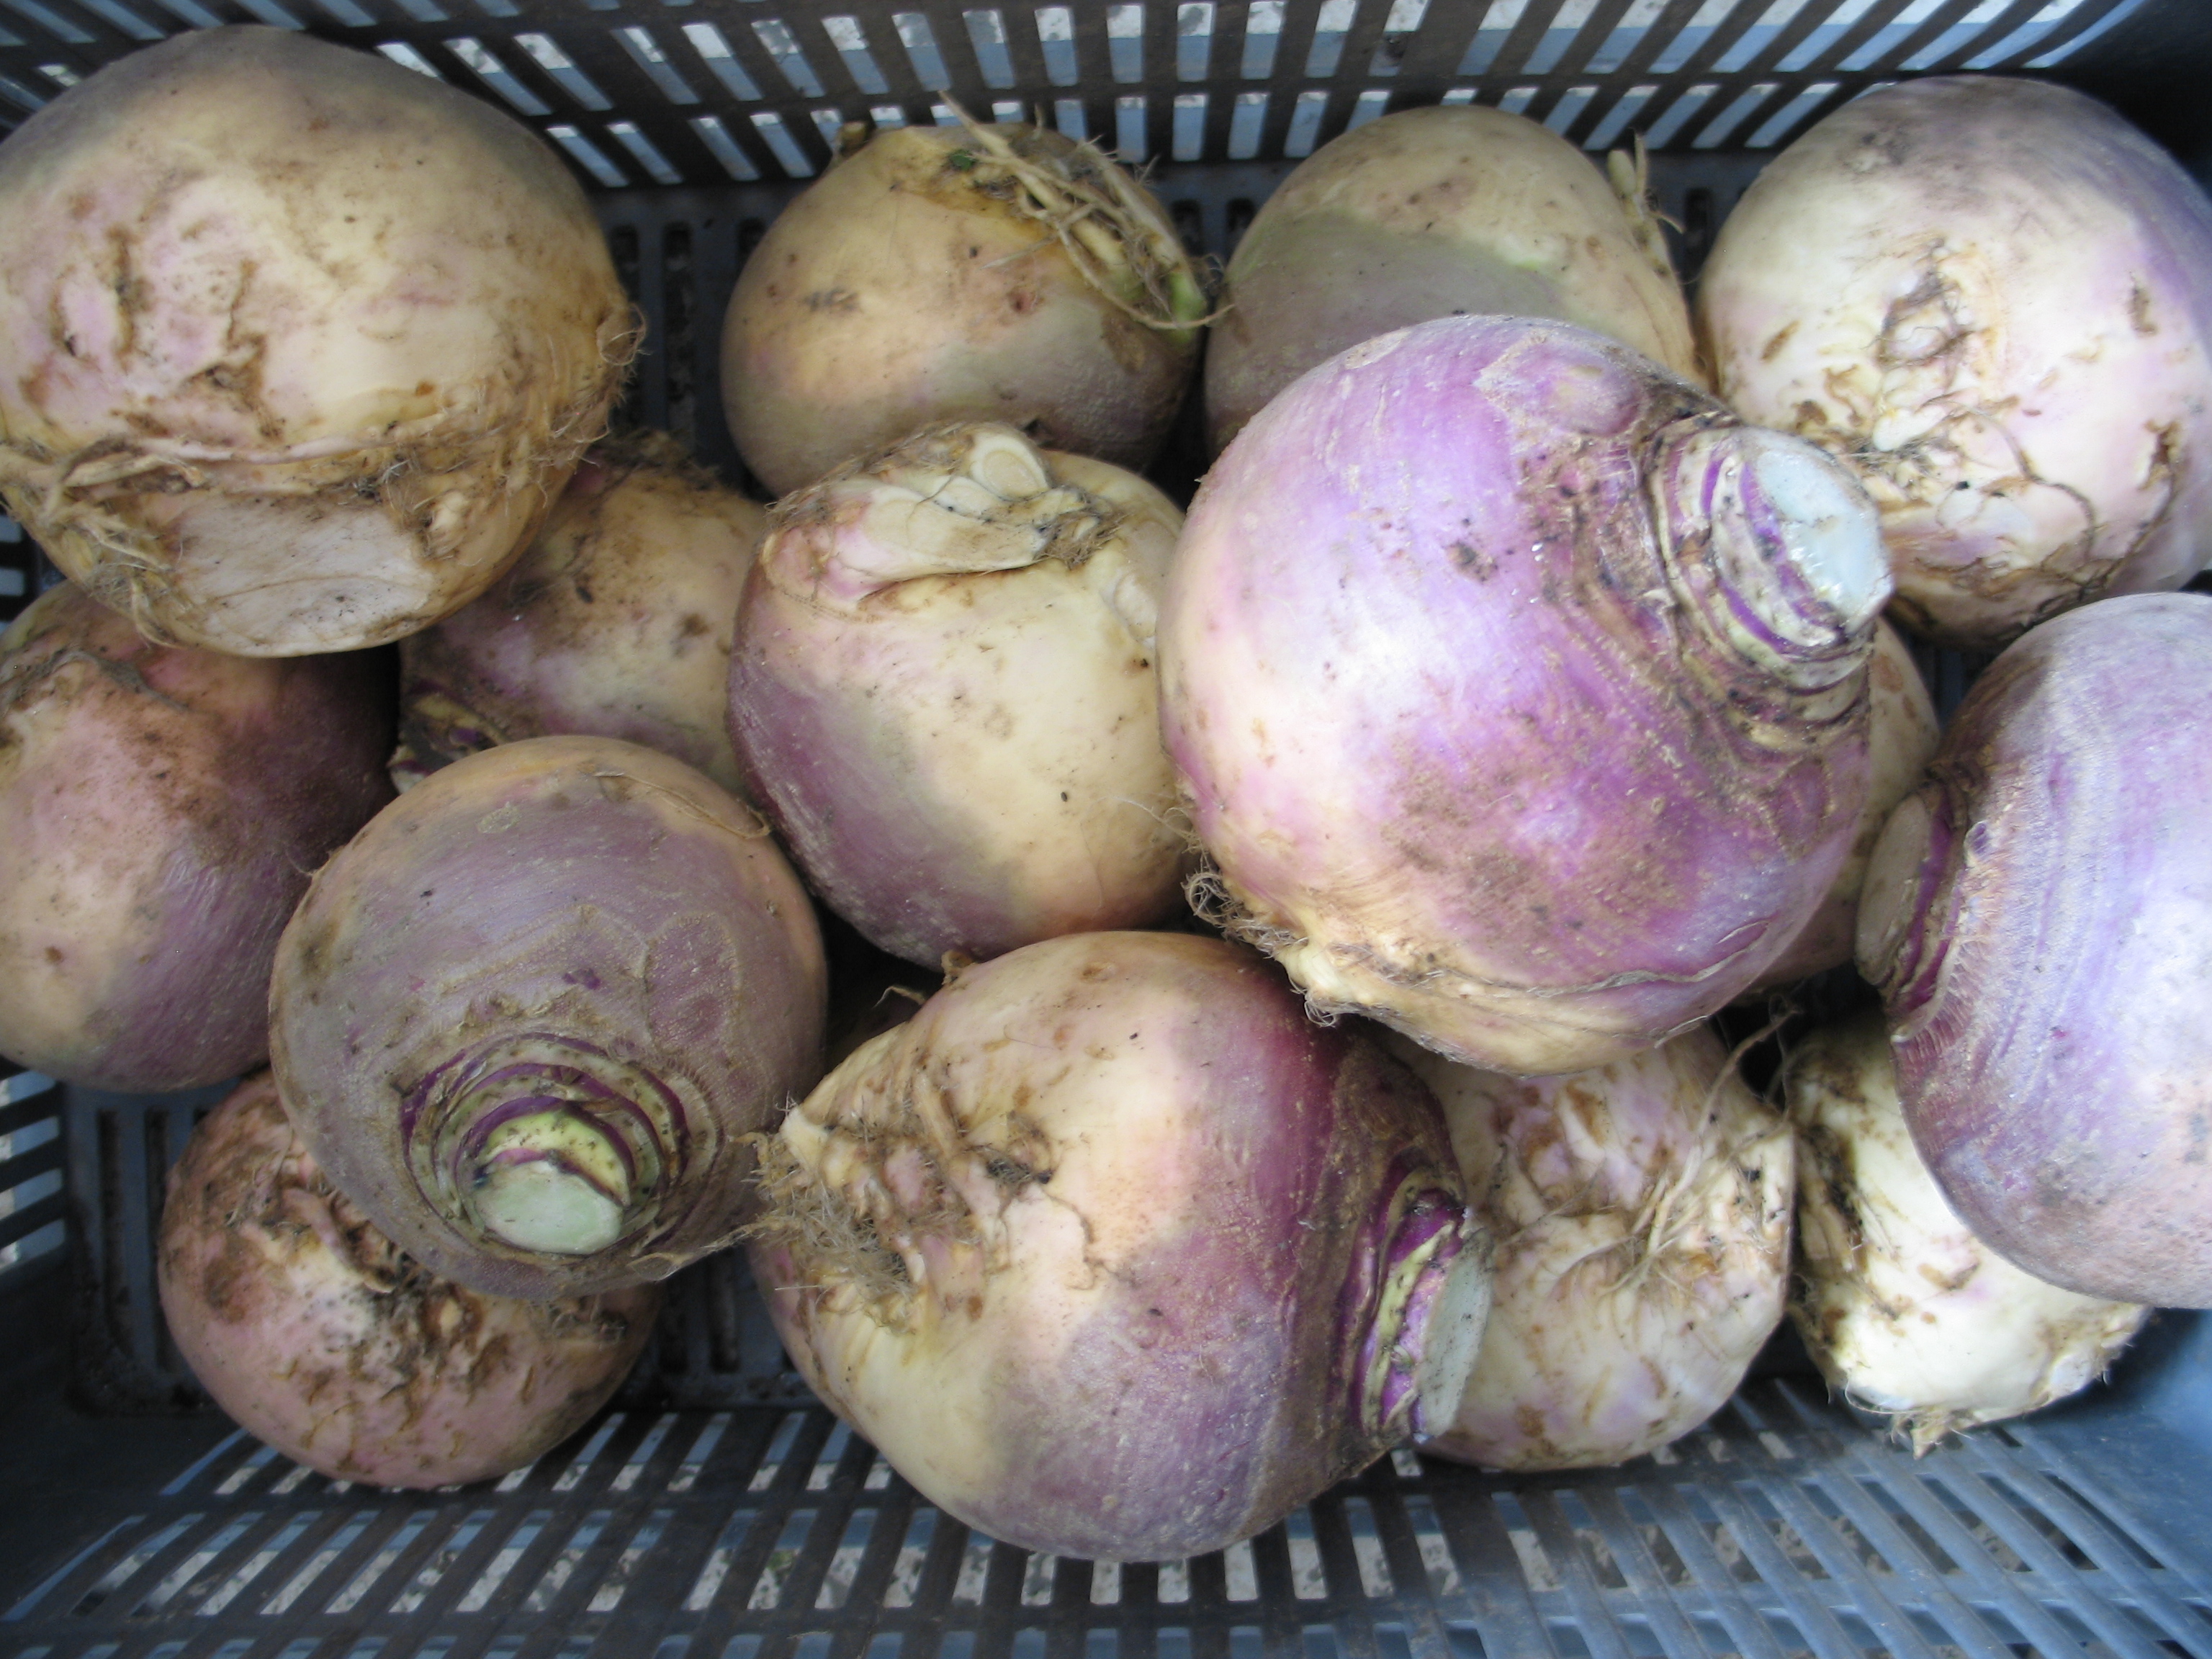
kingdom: Plantae
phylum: Tracheophyta
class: Magnoliopsida
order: Brassicales
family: Brassicaceae
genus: Brassica
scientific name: Brassica napus
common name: Rape
